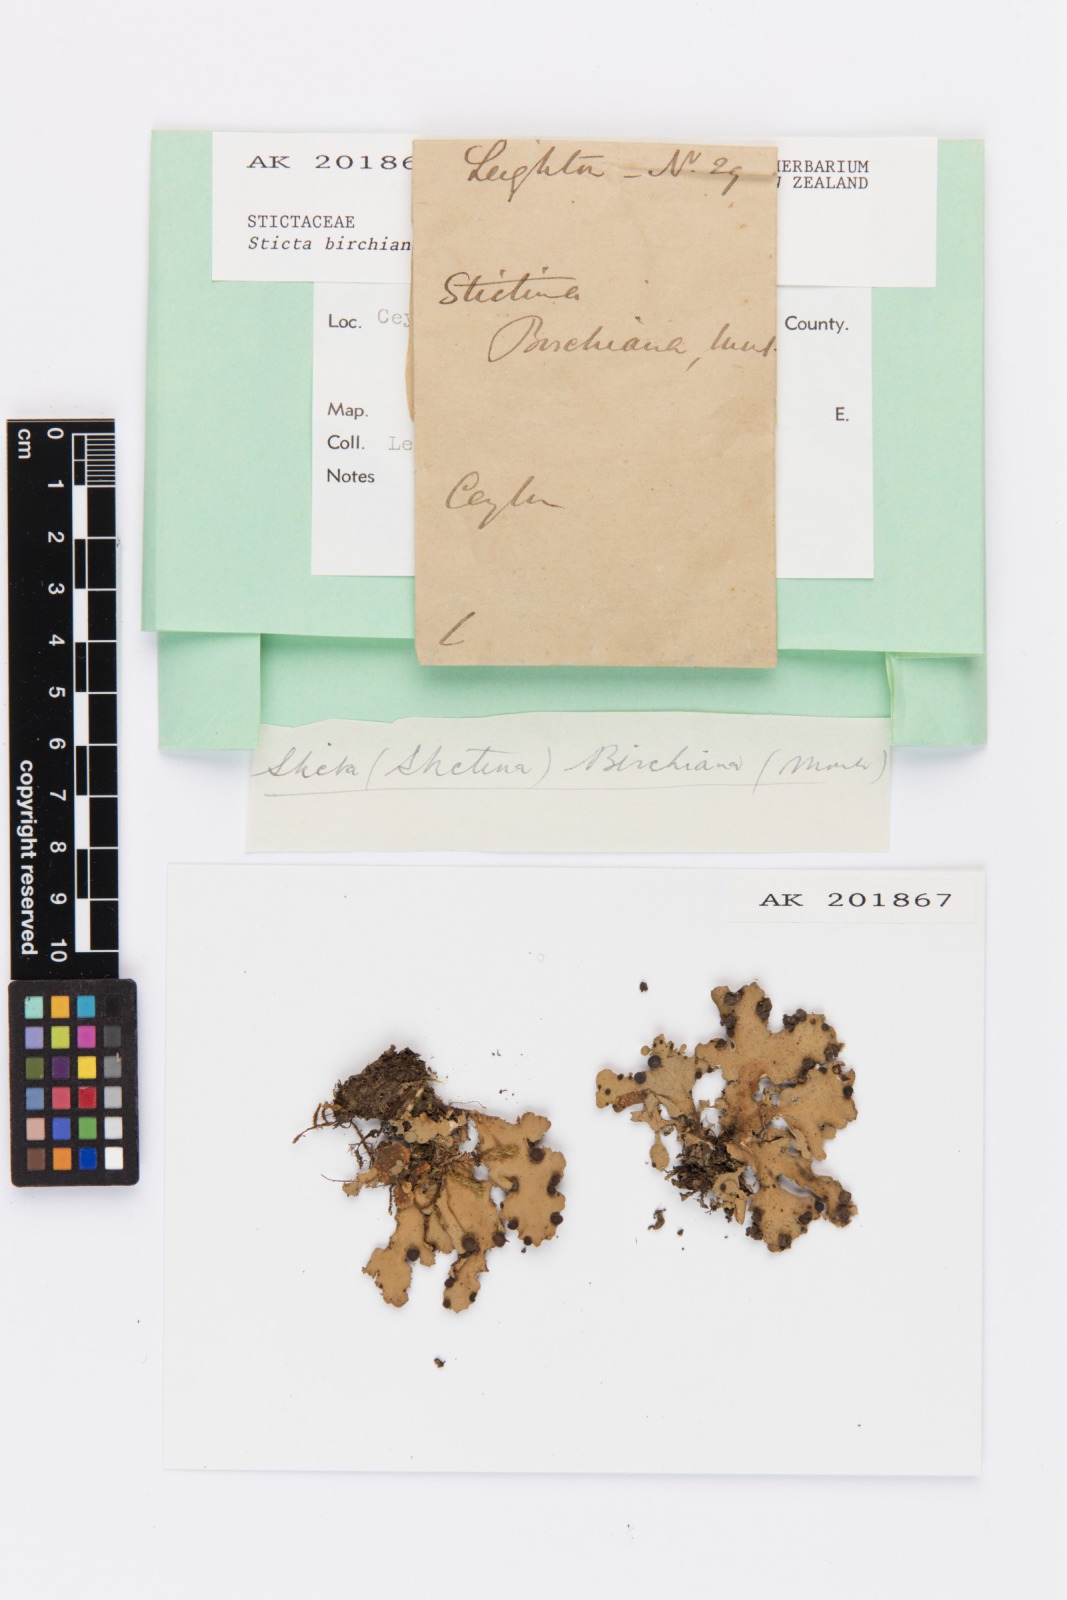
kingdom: Fungi
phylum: Ascomycota
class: Lecanoromycetes
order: Peltigerales
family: Lobariaceae
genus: Sticta
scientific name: Sticta
